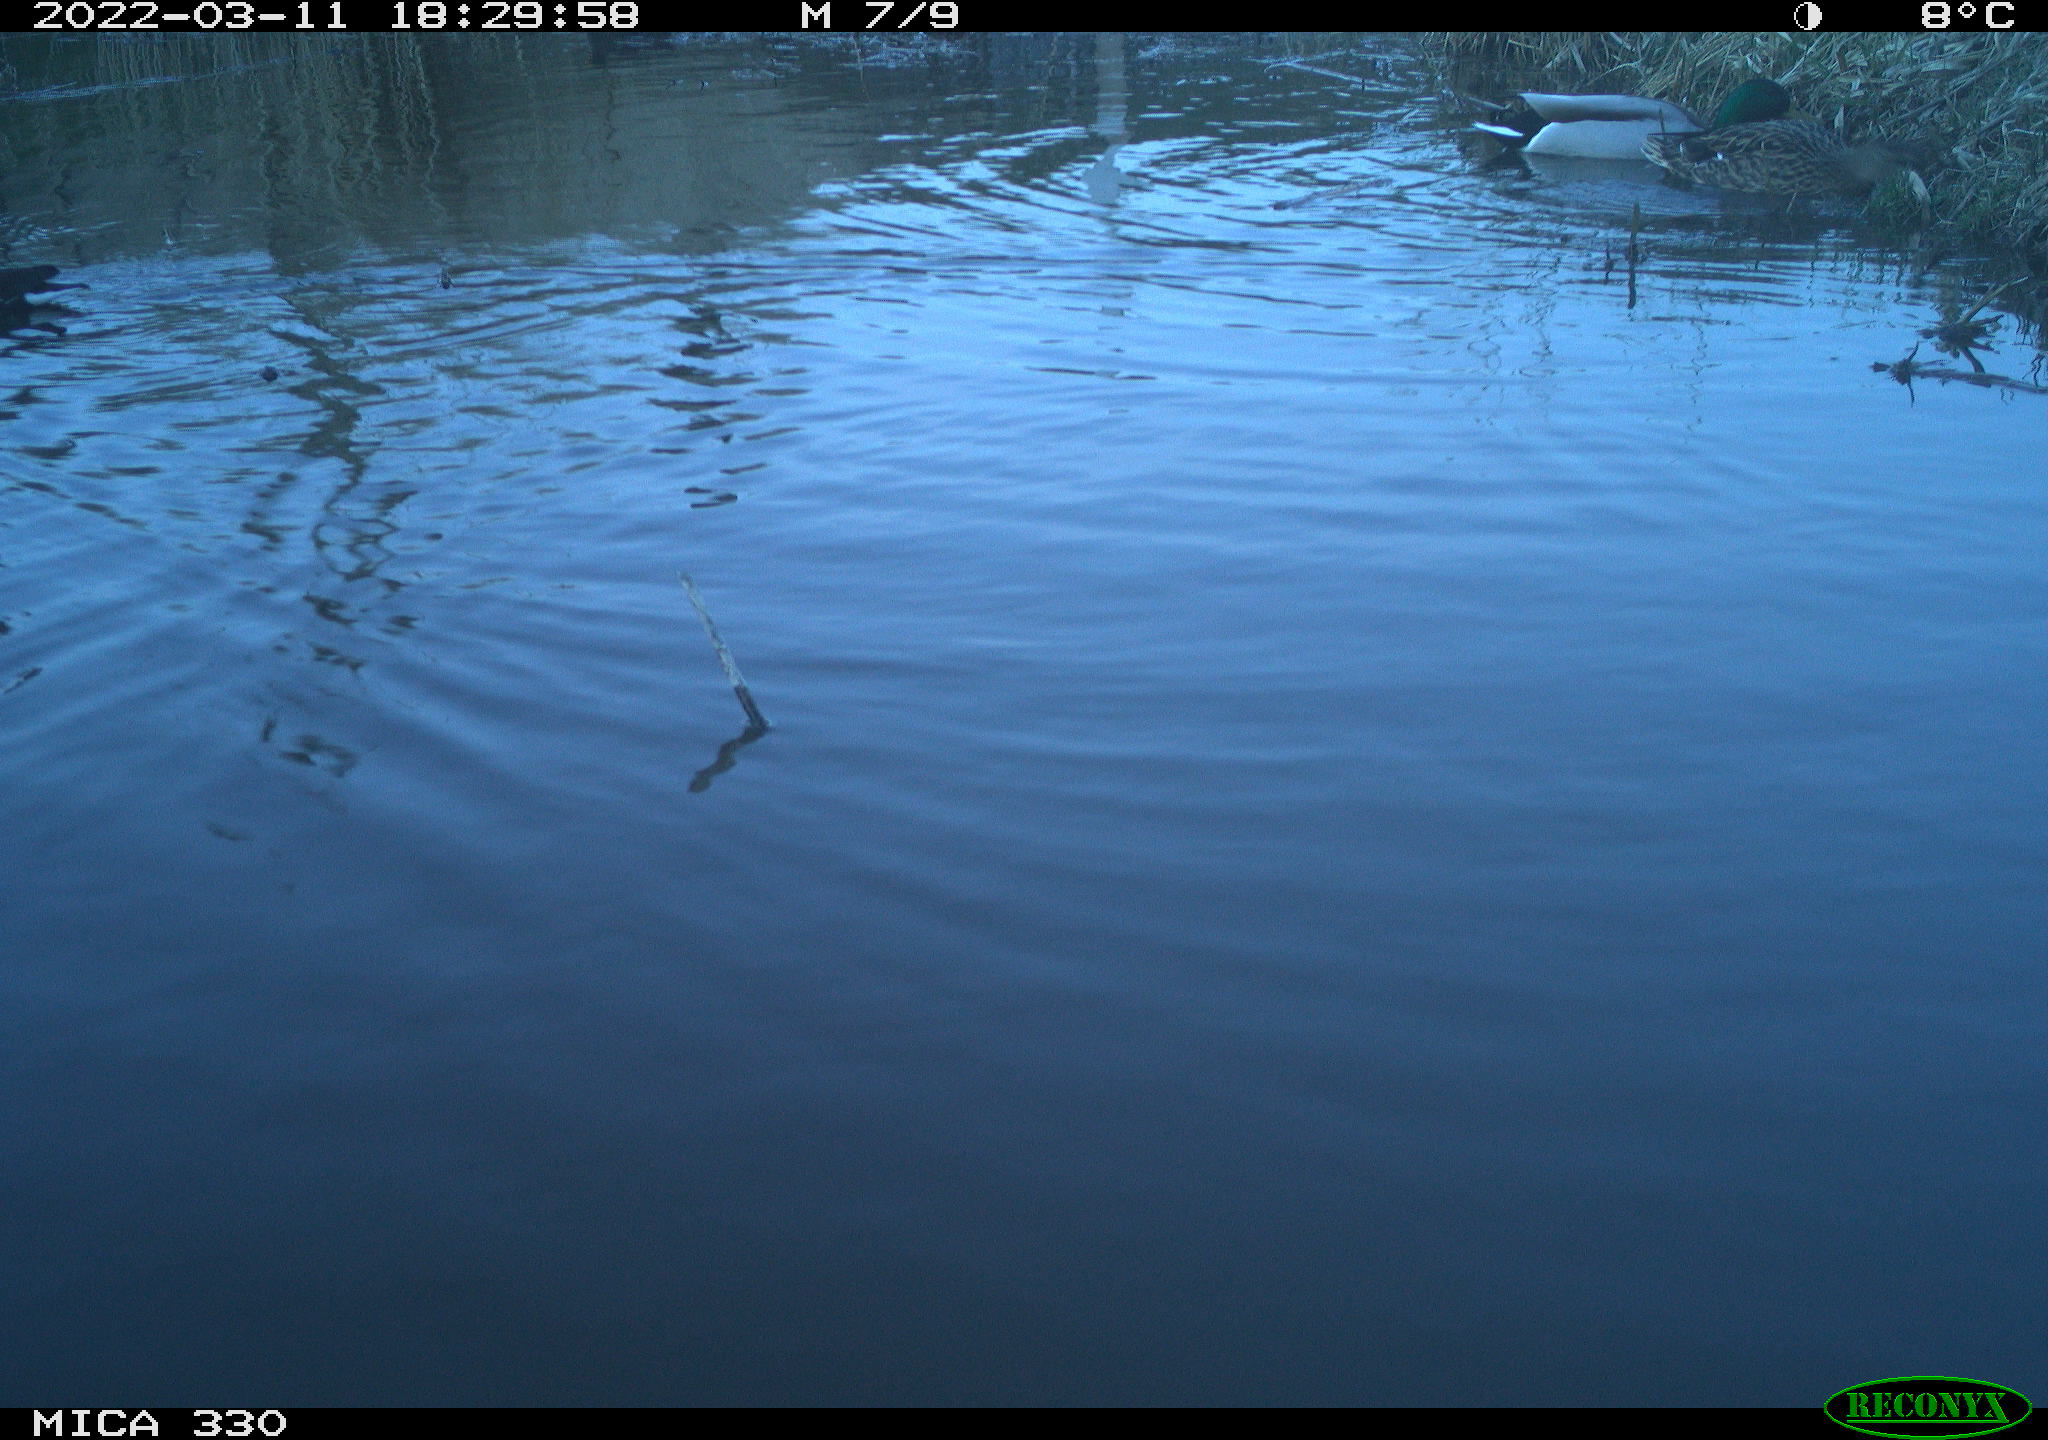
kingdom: Animalia
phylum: Chordata
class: Aves
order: Gruiformes
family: Rallidae
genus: Gallinula
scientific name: Gallinula chloropus
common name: Common moorhen
